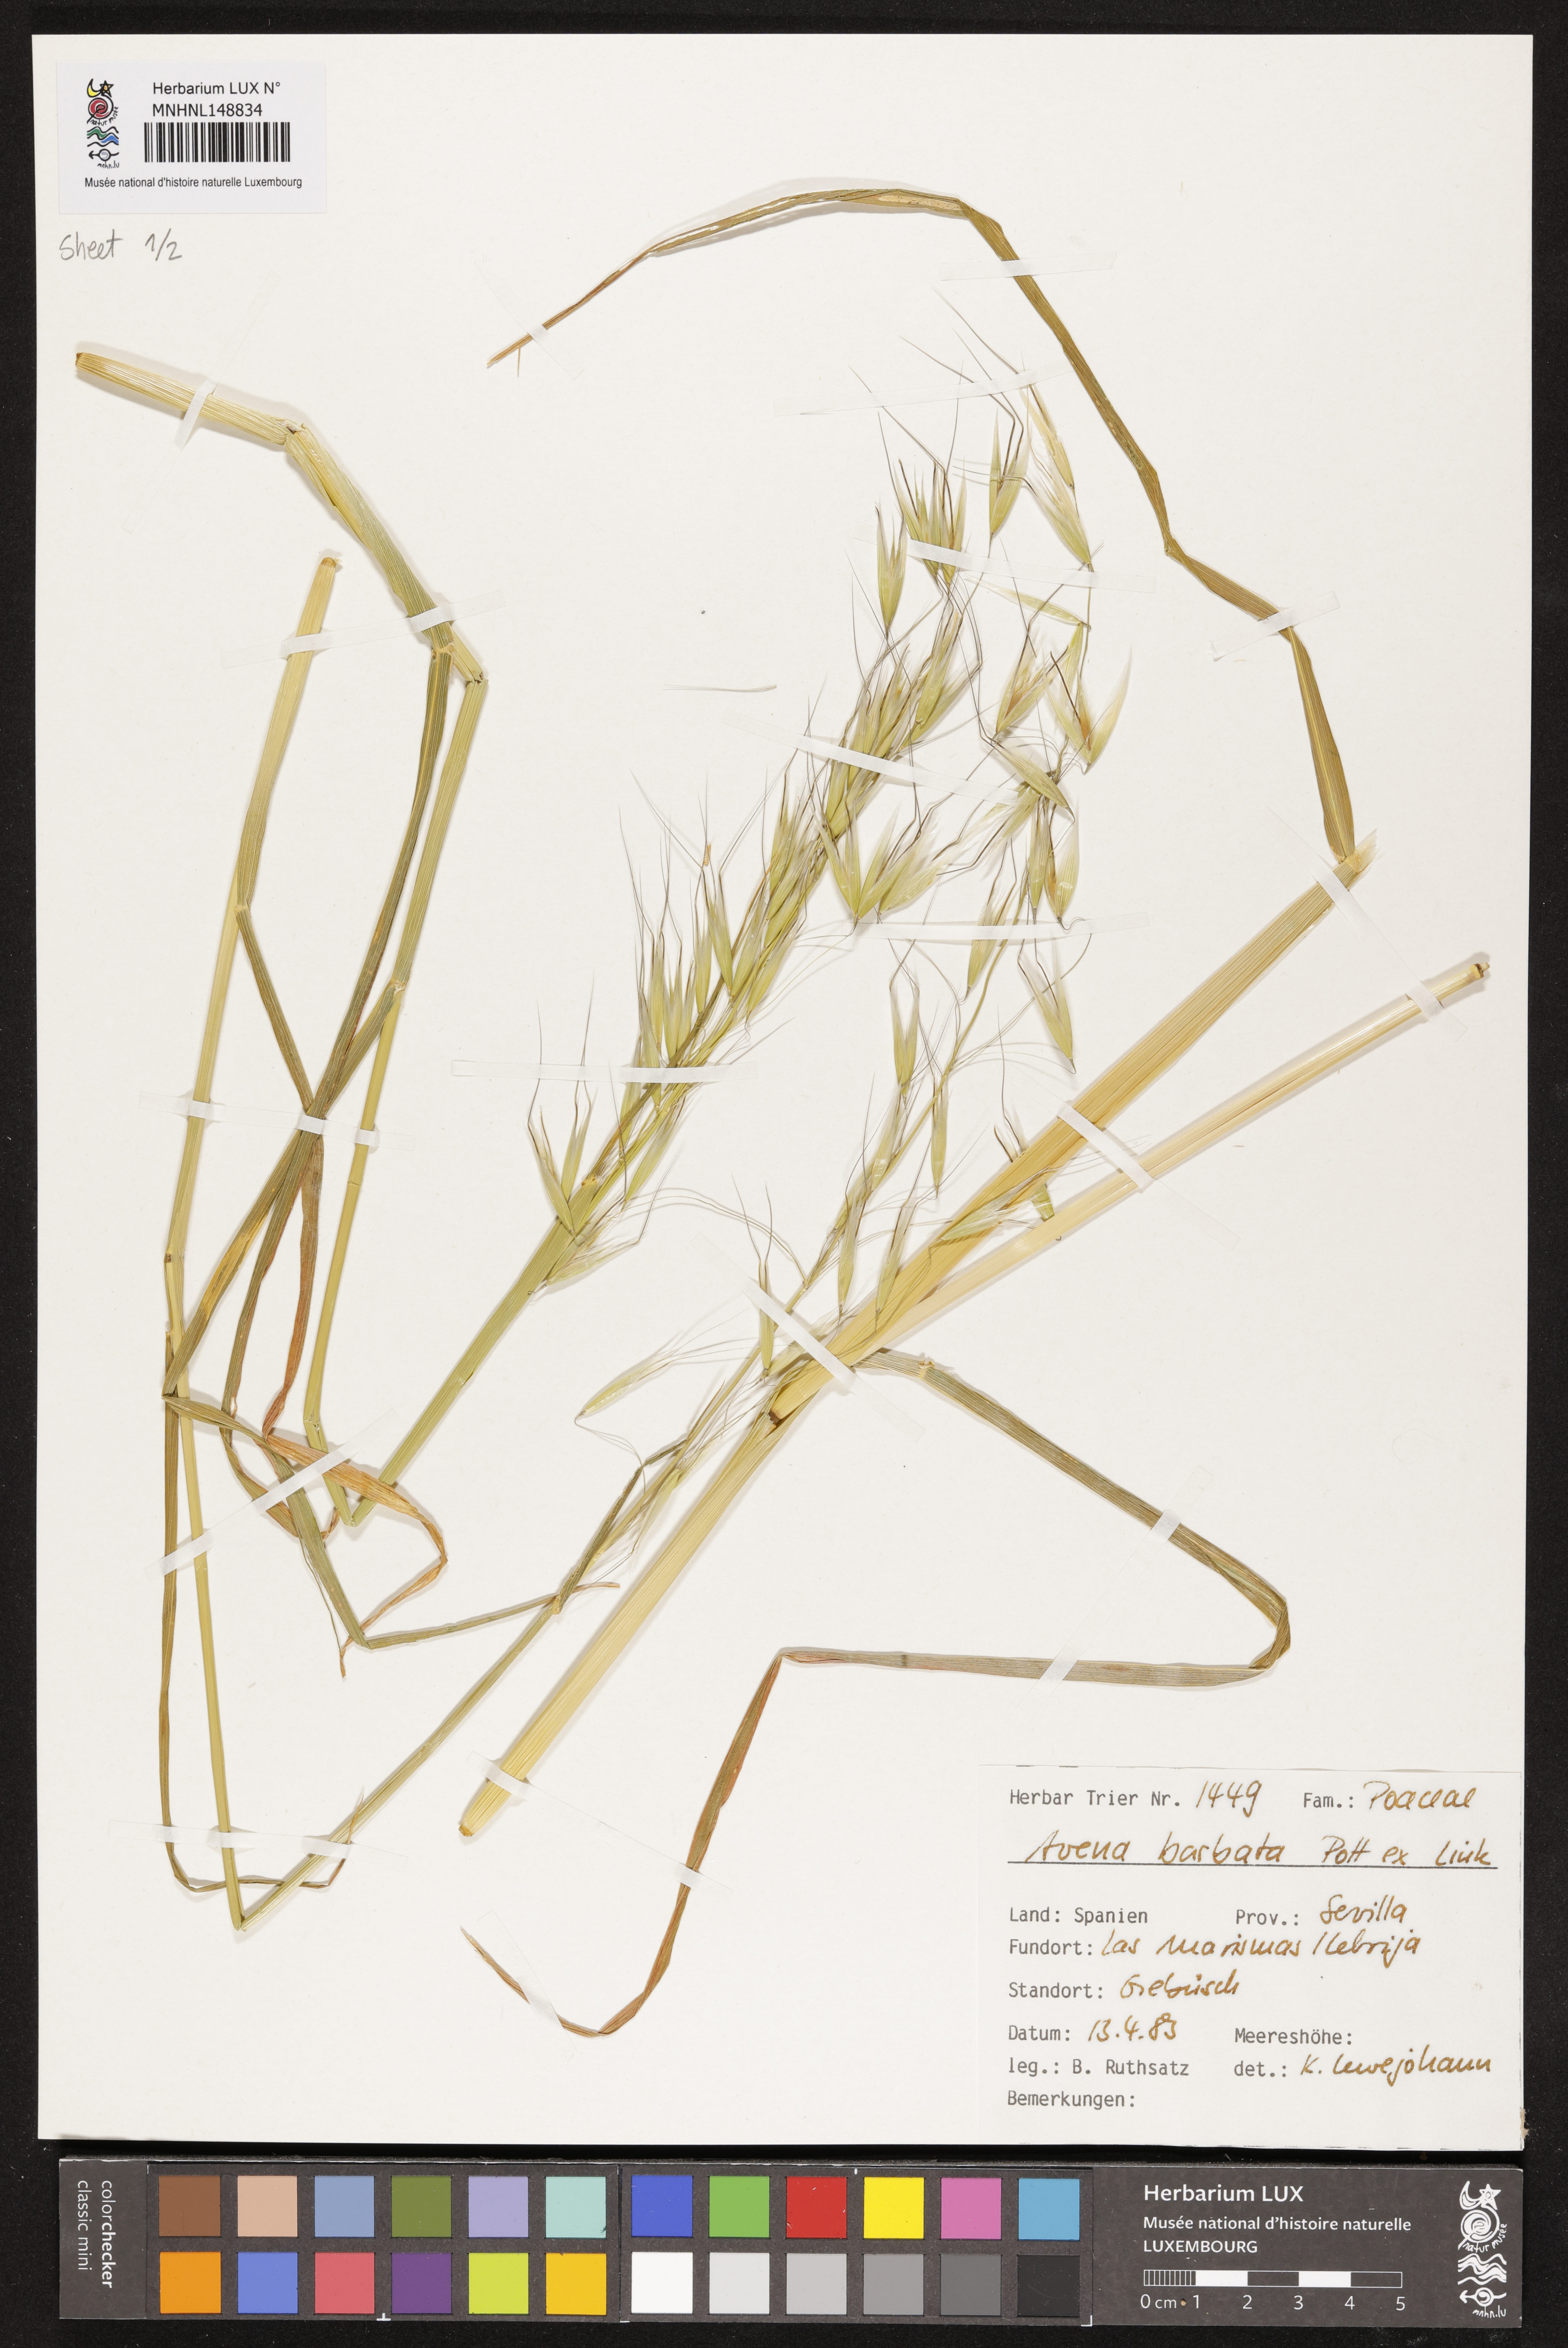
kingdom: Plantae
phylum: Tracheophyta
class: Liliopsida
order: Poales
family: Poaceae
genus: Avena
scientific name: Avena barbata
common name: Slender oat
